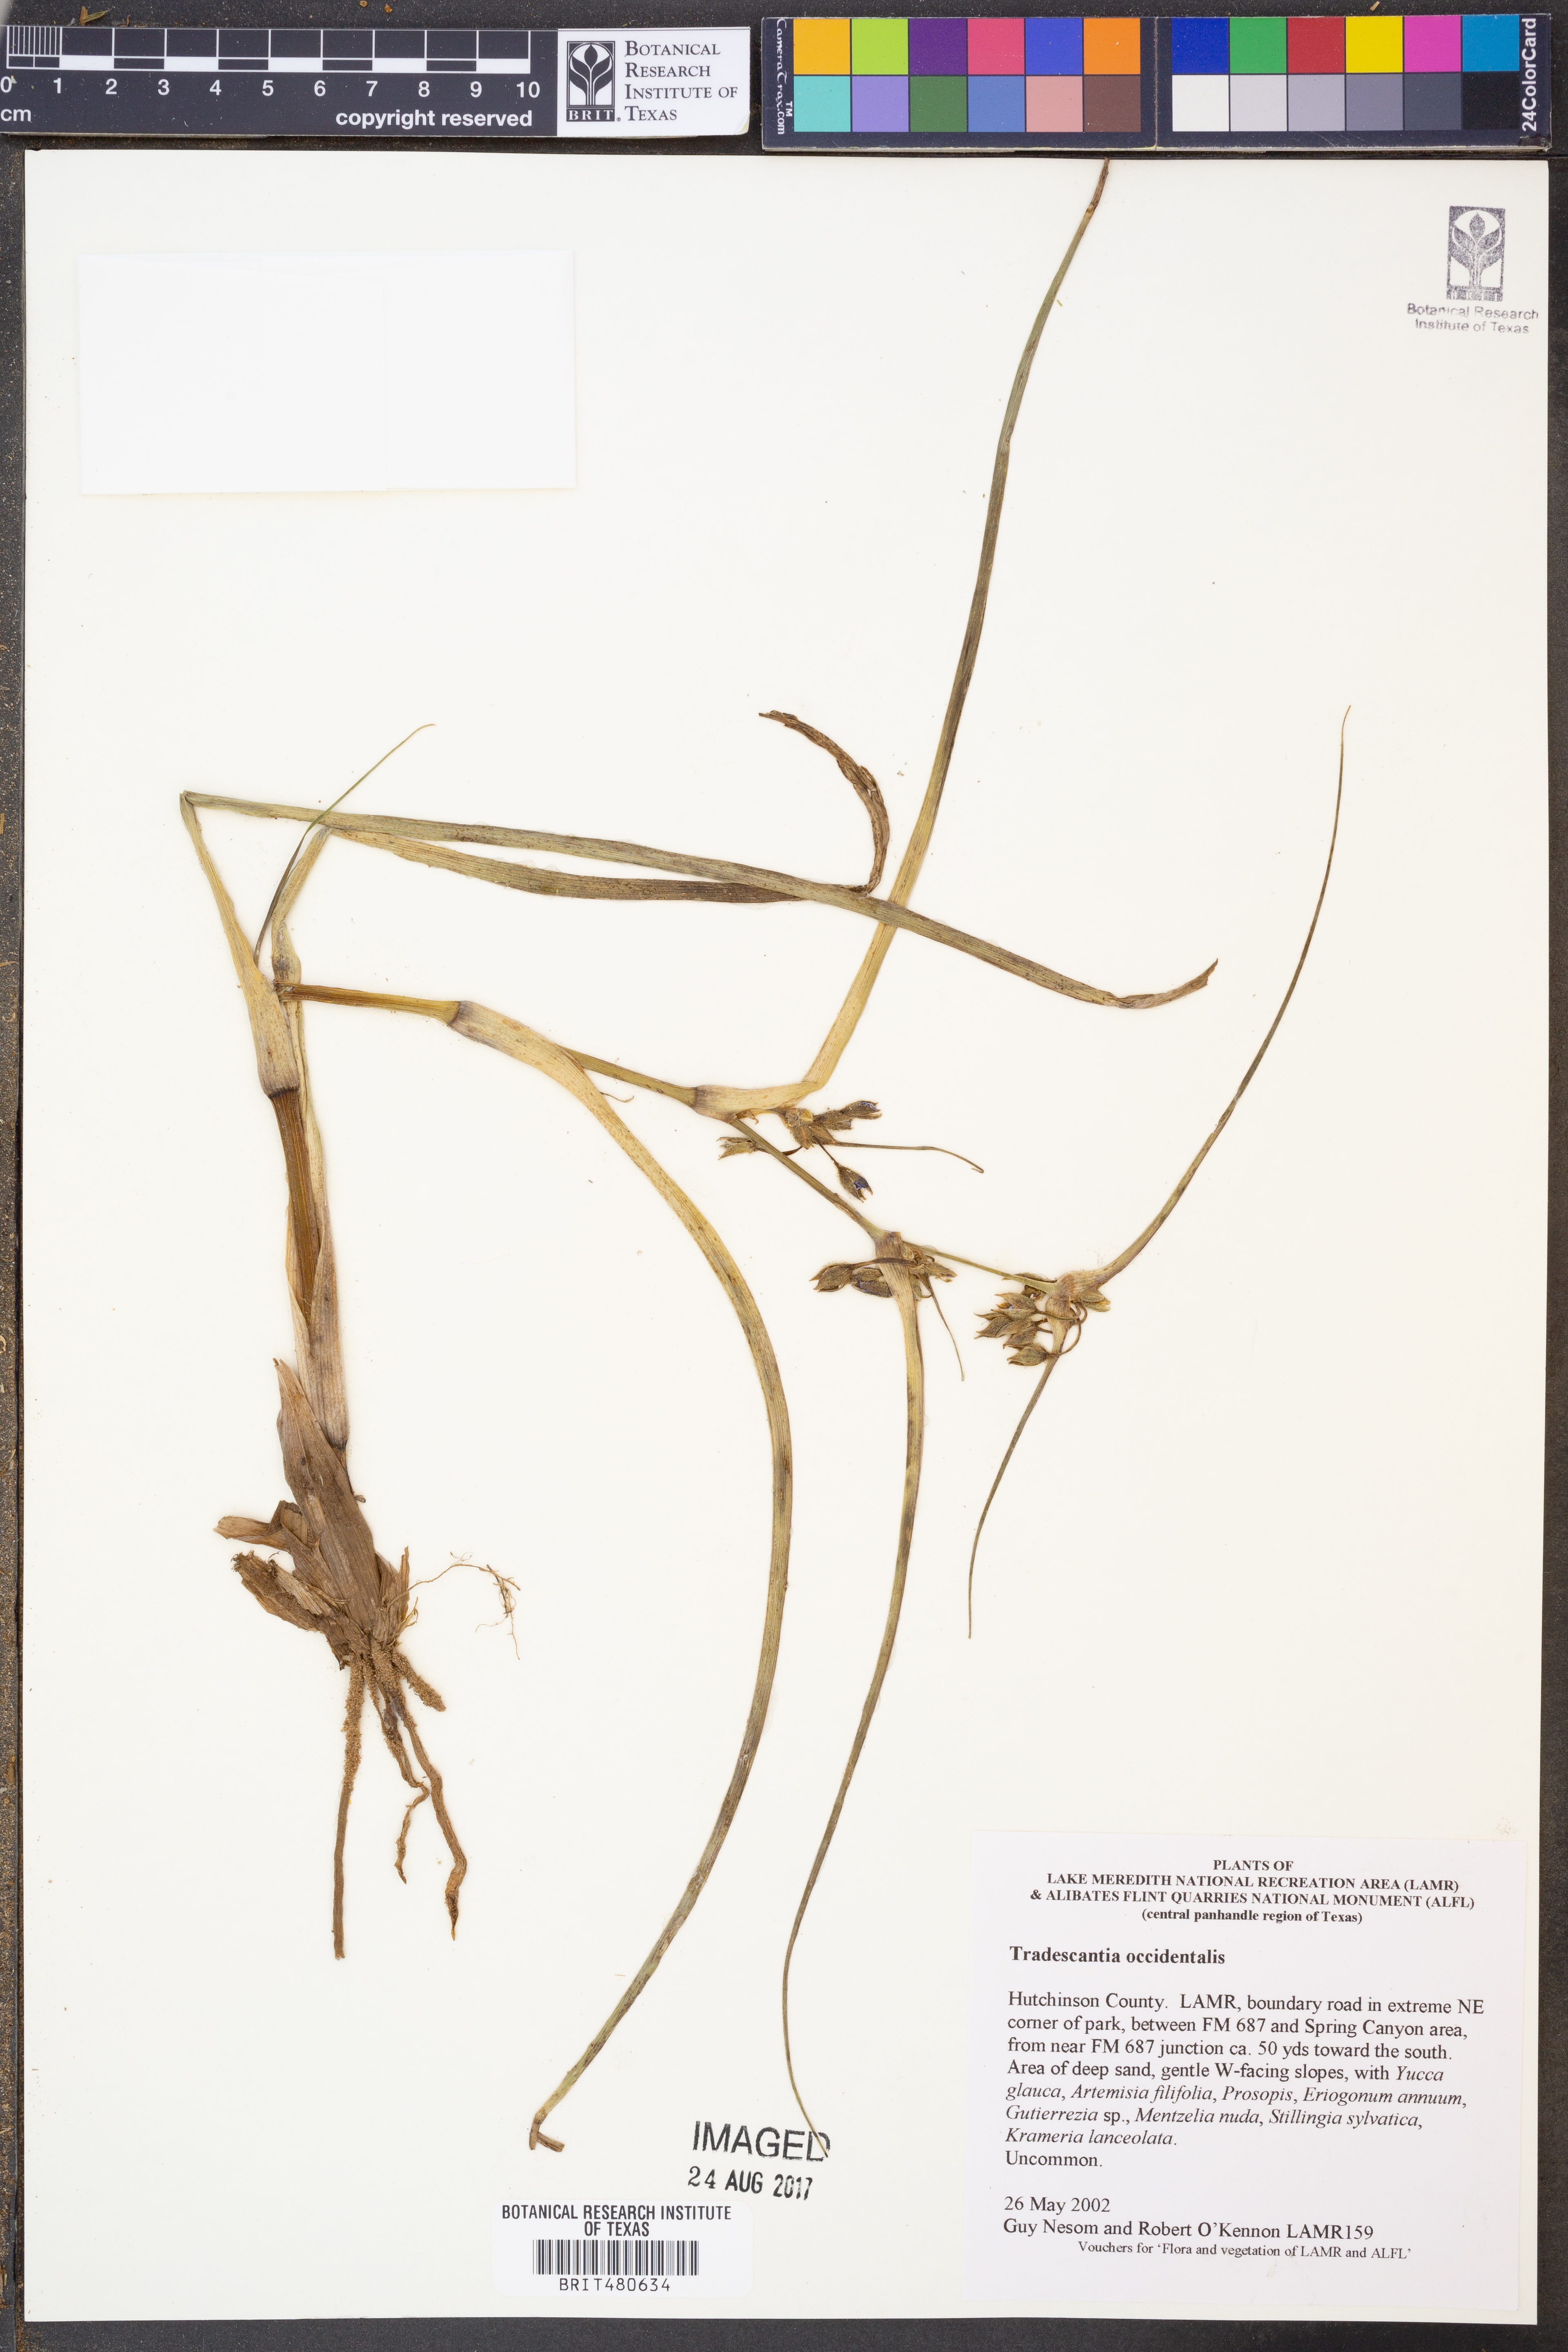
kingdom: Plantae
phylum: Tracheophyta
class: Liliopsida
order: Commelinales
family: Commelinaceae
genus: Tradescantia
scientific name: Tradescantia occidentalis
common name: Prairie spiderwort
